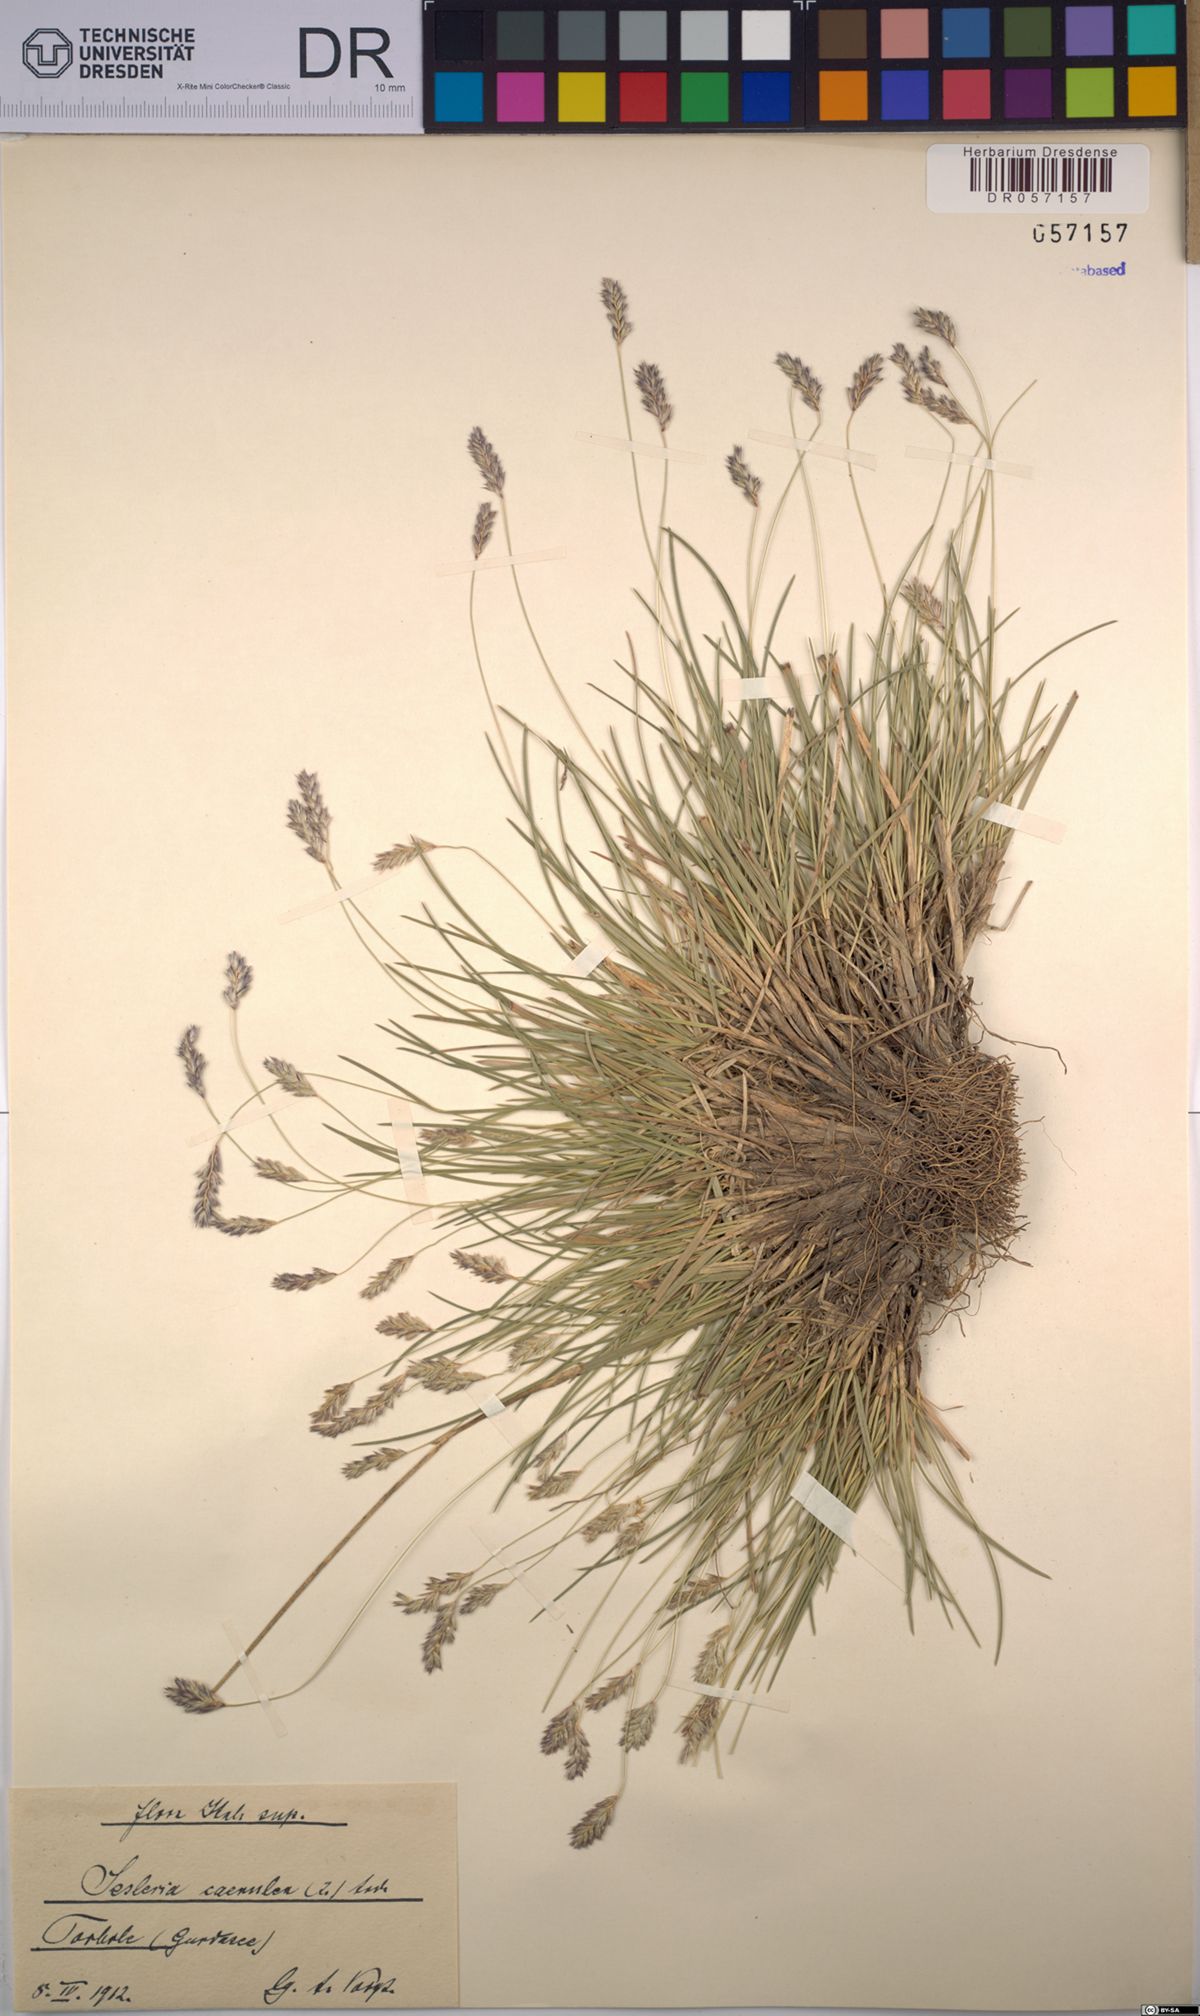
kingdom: Plantae
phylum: Tracheophyta
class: Liliopsida
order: Poales
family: Poaceae
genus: Sesleria
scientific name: Sesleria caerulea
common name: Blue moor-grass
